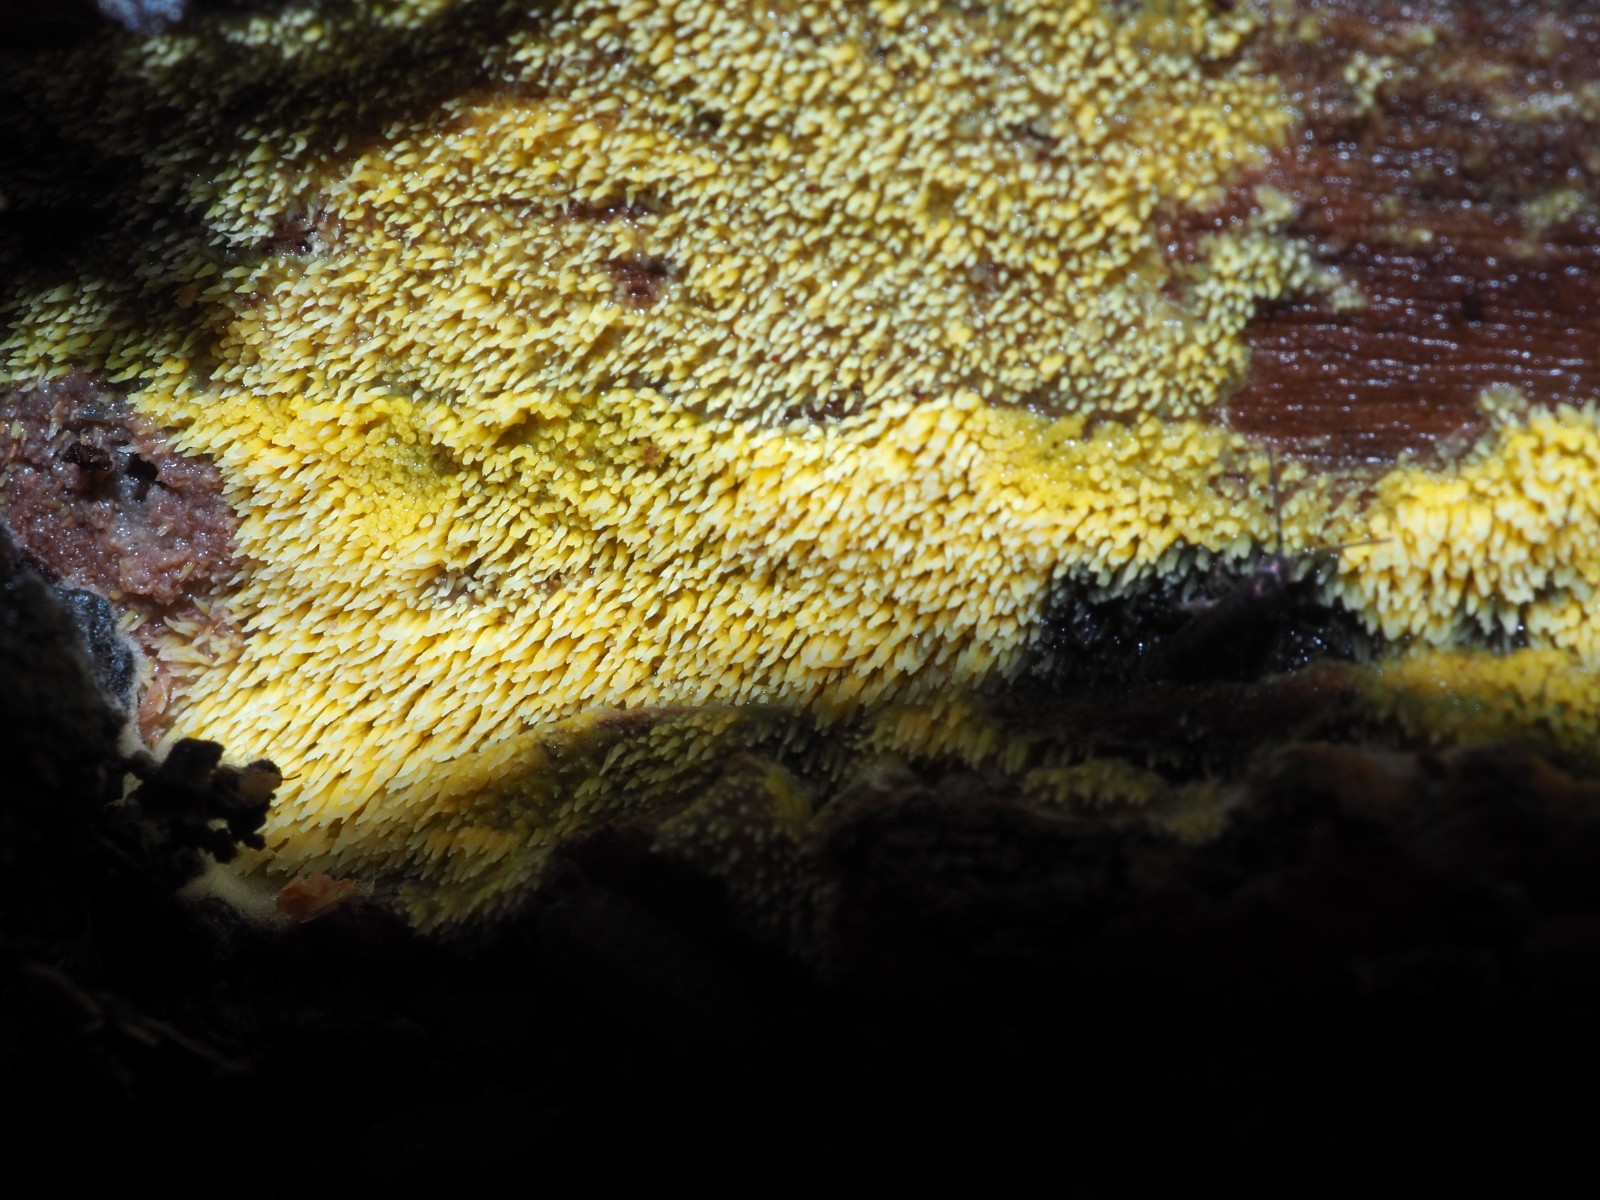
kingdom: Fungi
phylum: Basidiomycota
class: Agaricomycetes
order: Polyporales
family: Meruliaceae
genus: Mycoacia
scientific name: Mycoacia uda
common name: citrongul vokspig
